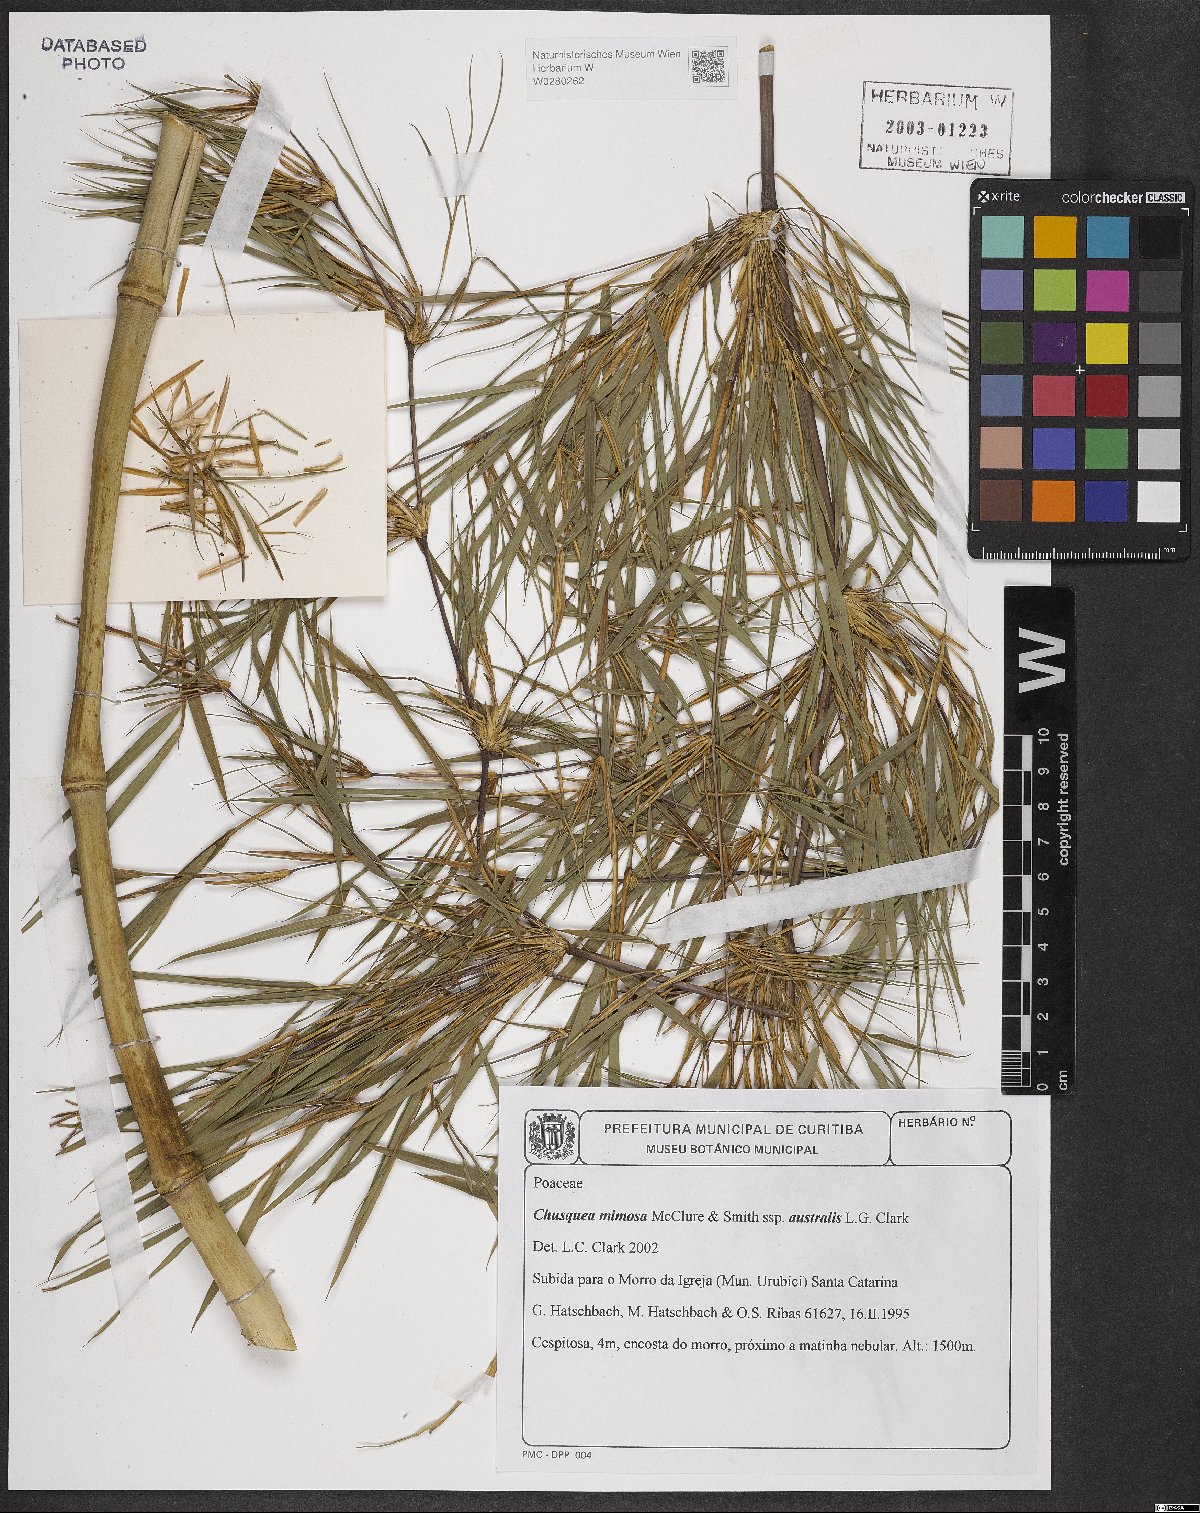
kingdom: Plantae
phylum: Tracheophyta
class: Liliopsida
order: Poales
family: Poaceae
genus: Chusquea
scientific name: Chusquea mimosa
